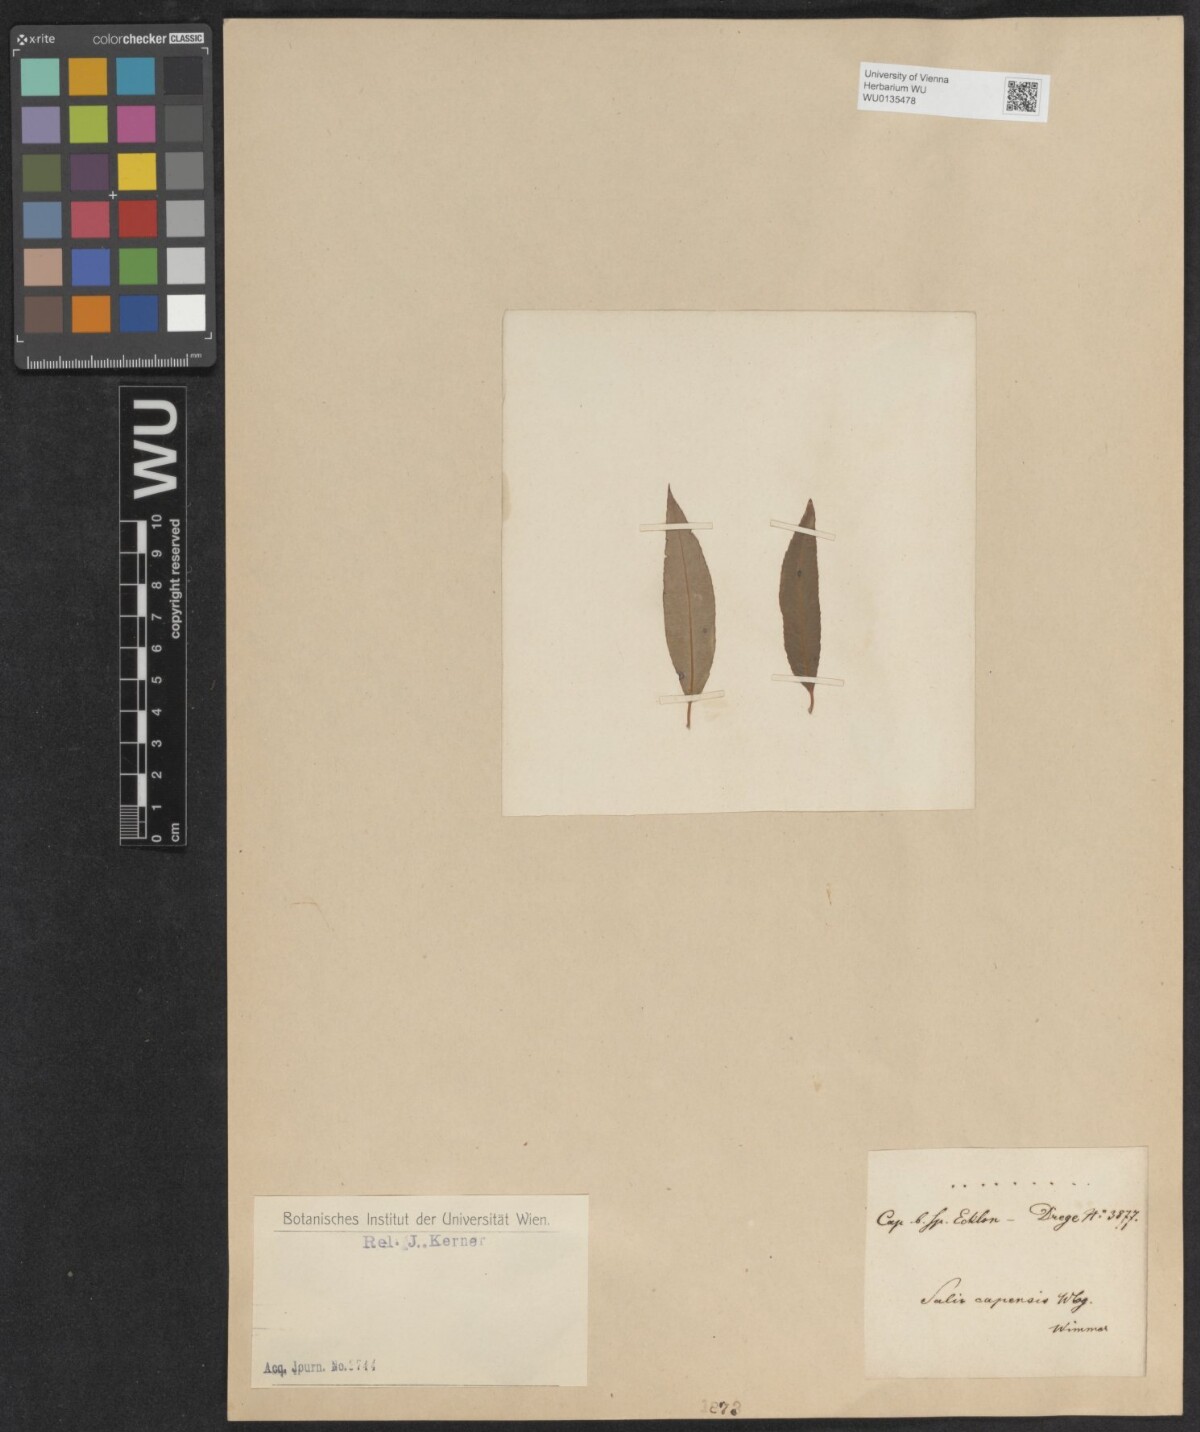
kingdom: Plantae
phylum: Tracheophyta
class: Magnoliopsida
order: Malpighiales
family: Salicaceae
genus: Salix
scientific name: Salix mucronata
